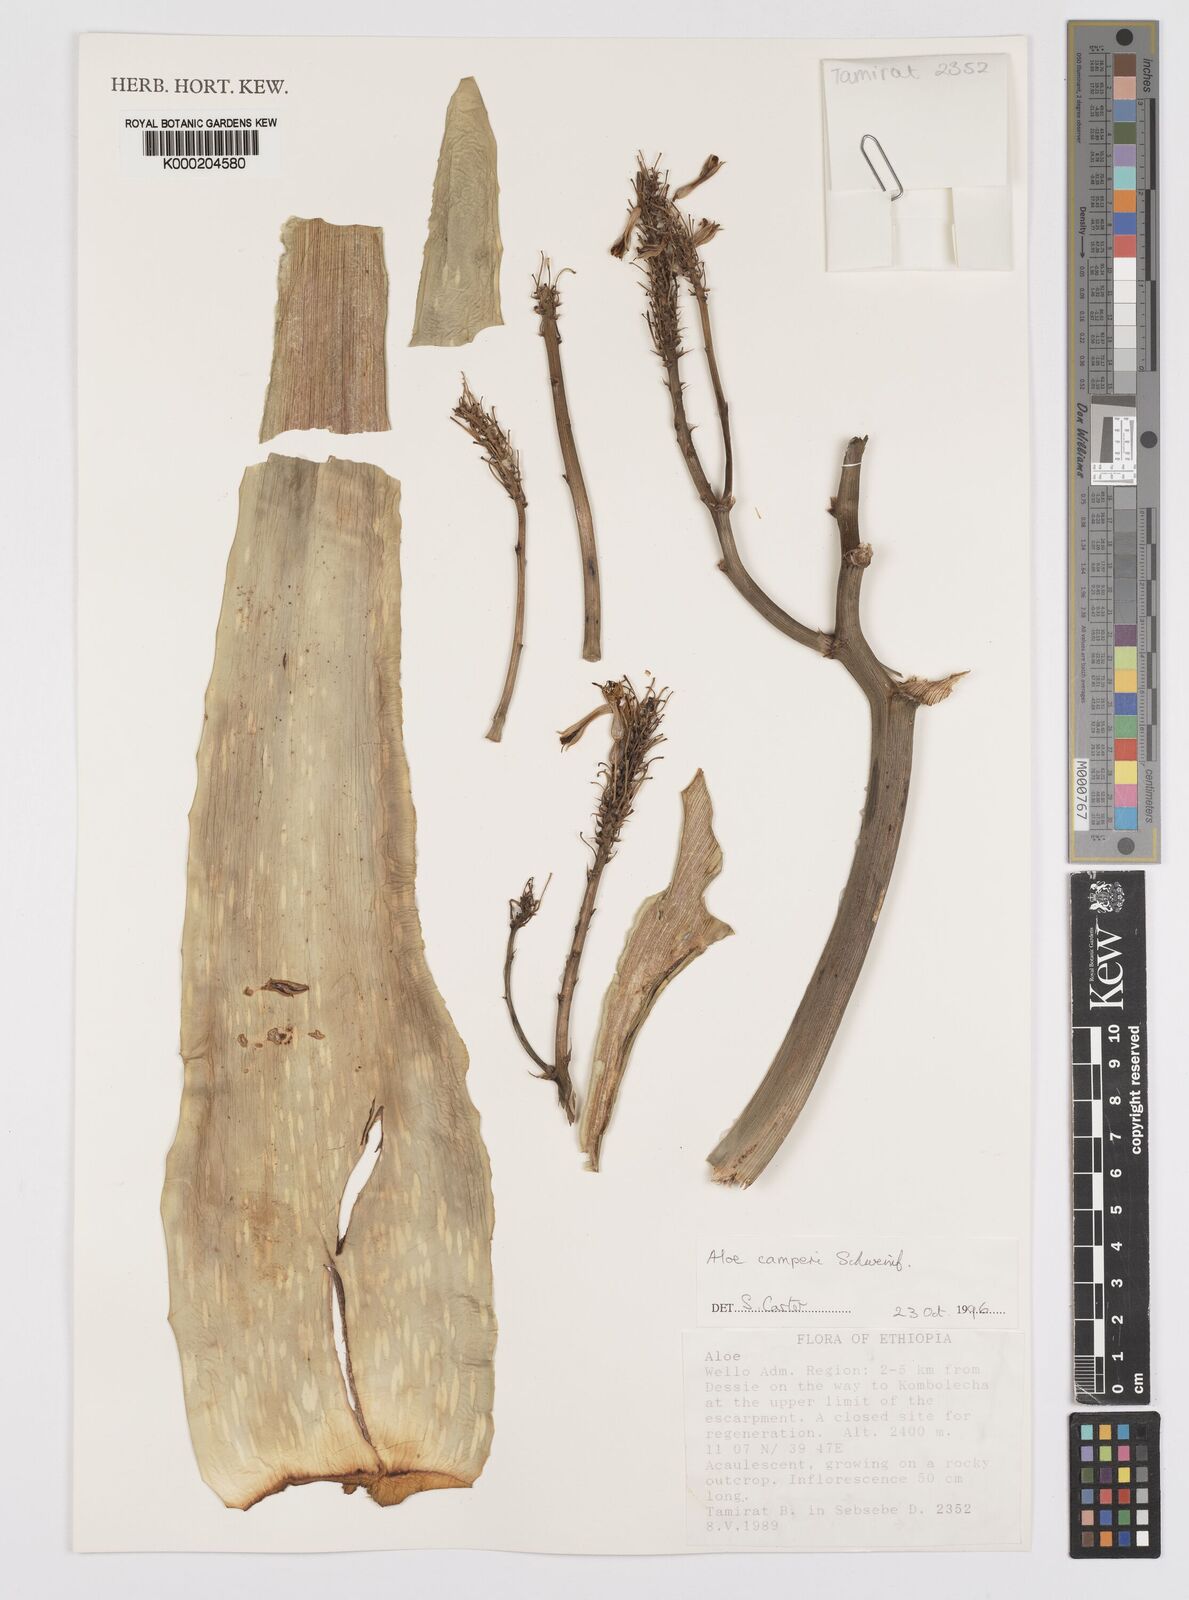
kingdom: Plantae
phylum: Tracheophyta
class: Liliopsida
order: Asparagales
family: Asphodelaceae
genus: Aloe
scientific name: Aloe camperi
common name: Camper's aloe
